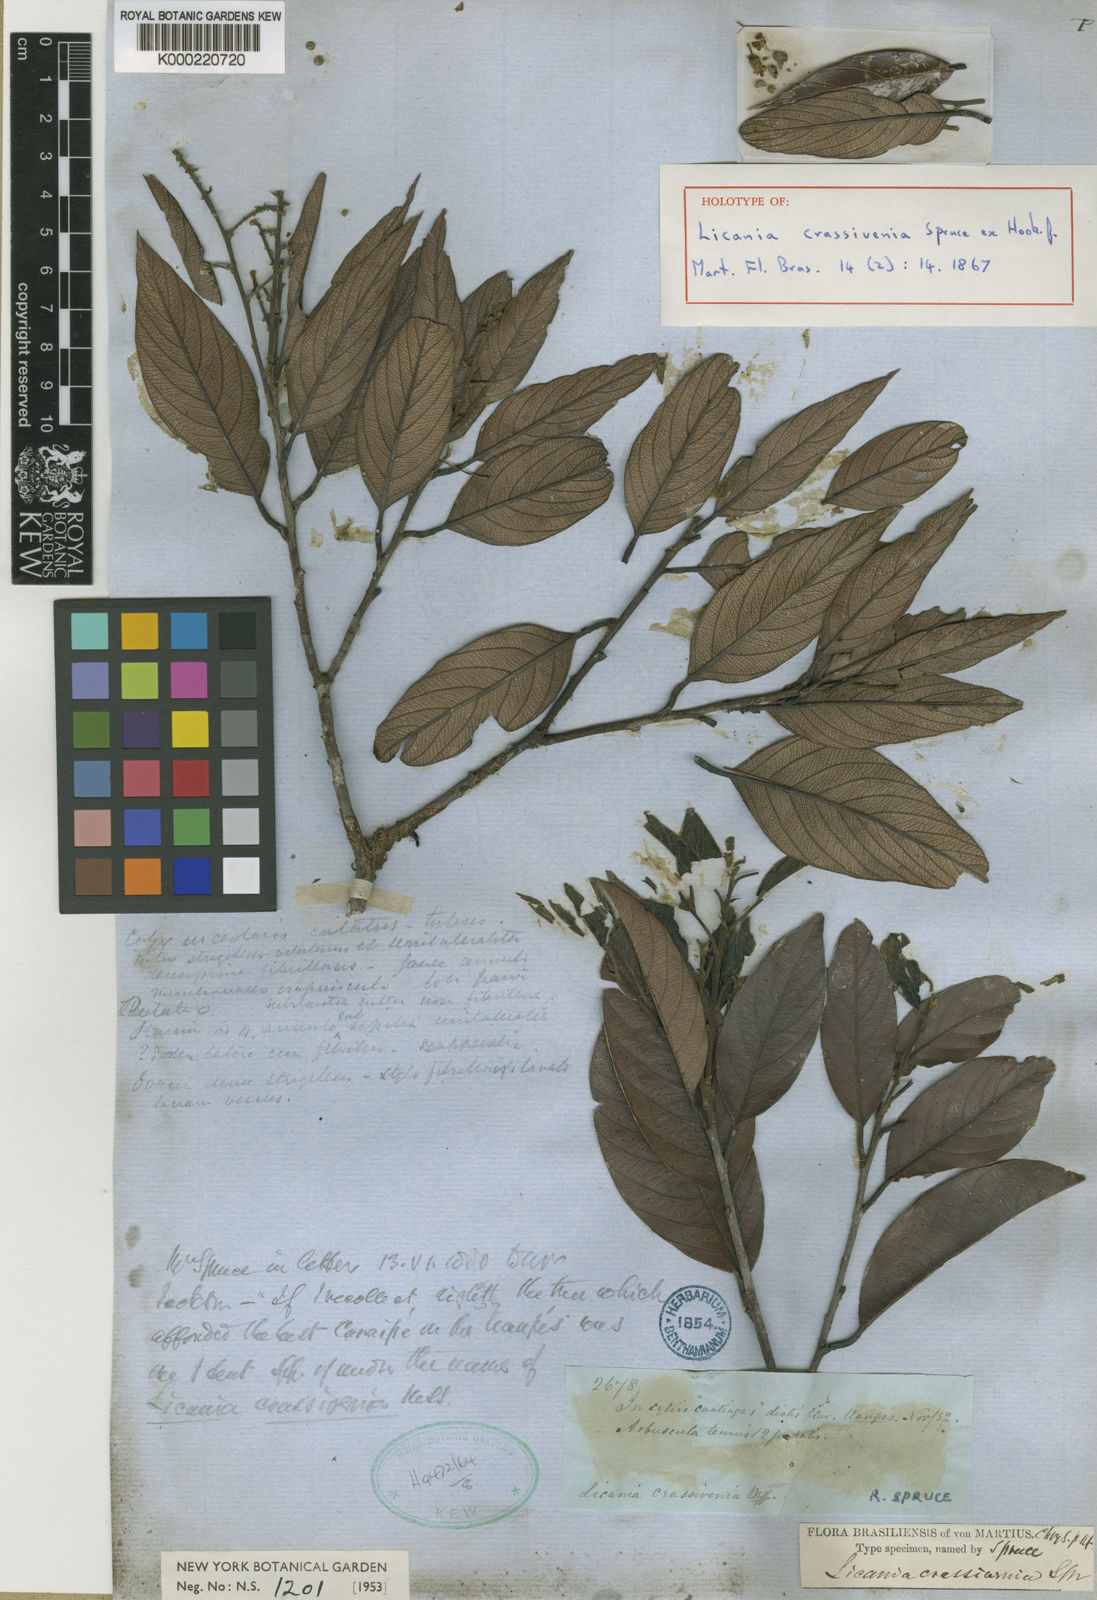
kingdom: Plantae
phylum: Tracheophyta
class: Magnoliopsida
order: Malpighiales
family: Chrysobalanaceae
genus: Licania
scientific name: Licania crassivenia
